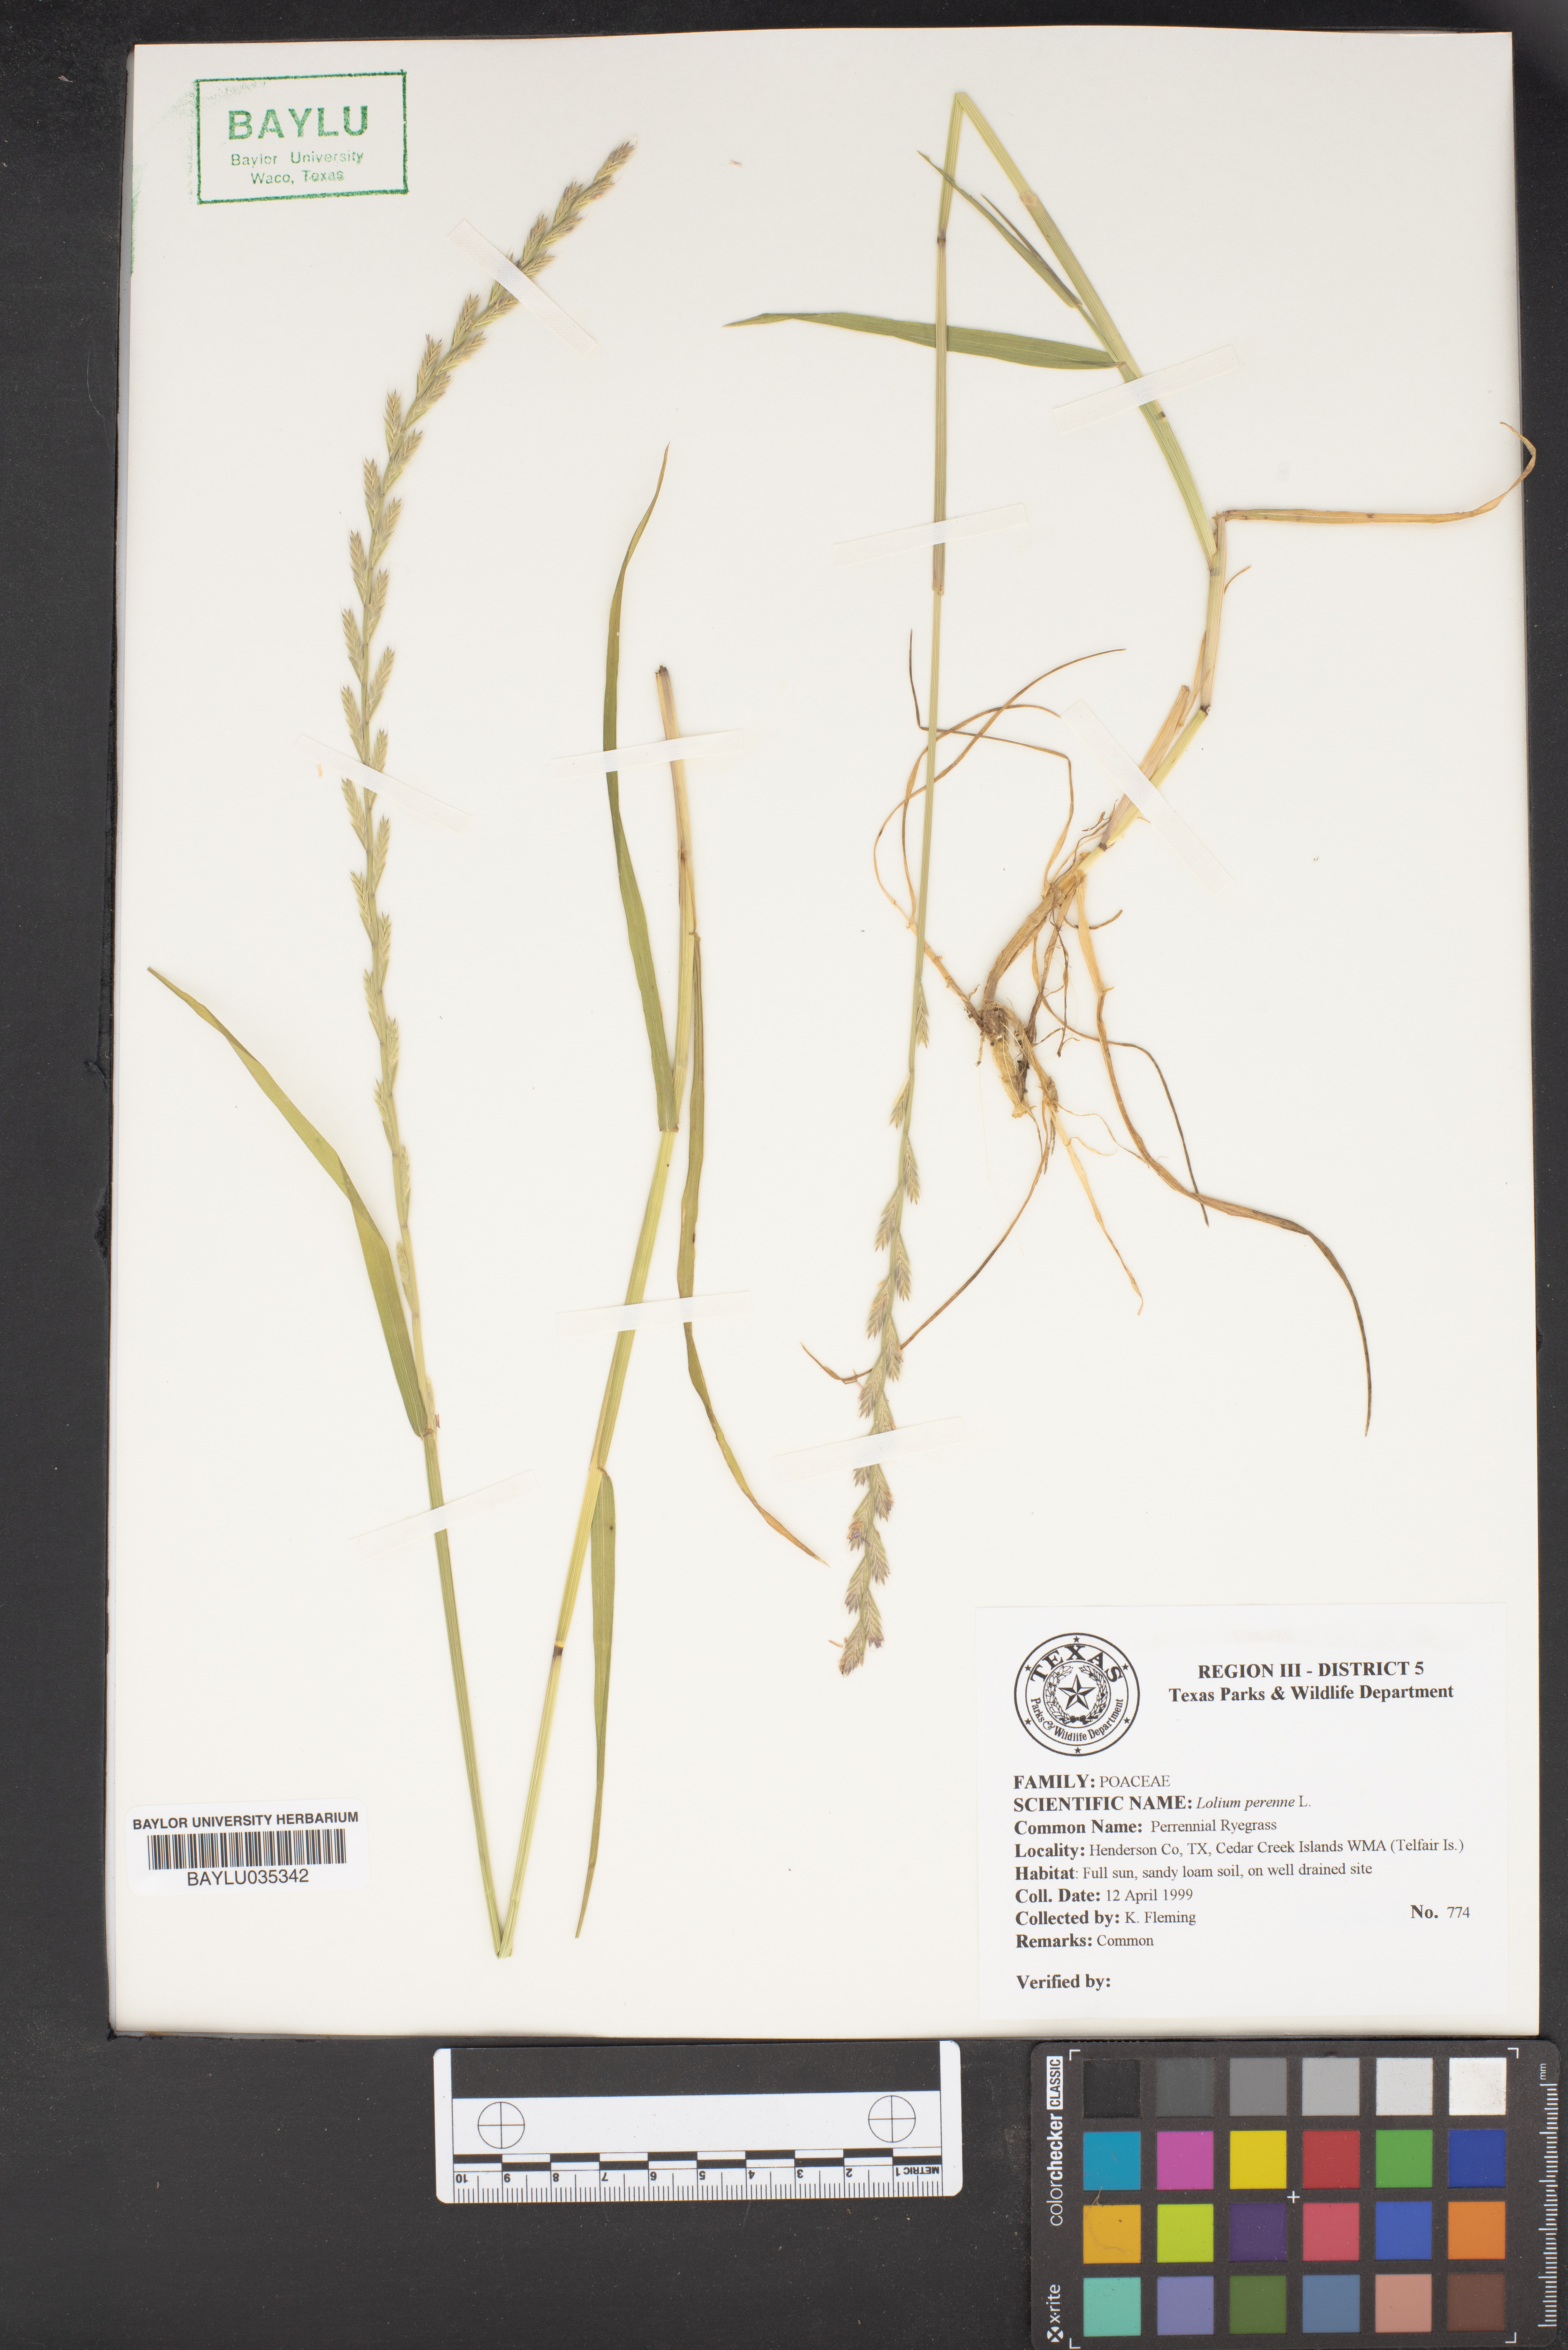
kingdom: Plantae
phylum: Tracheophyta
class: Liliopsida
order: Poales
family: Poaceae
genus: Lolium
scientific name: Lolium perenne
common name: Perennial ryegrass
